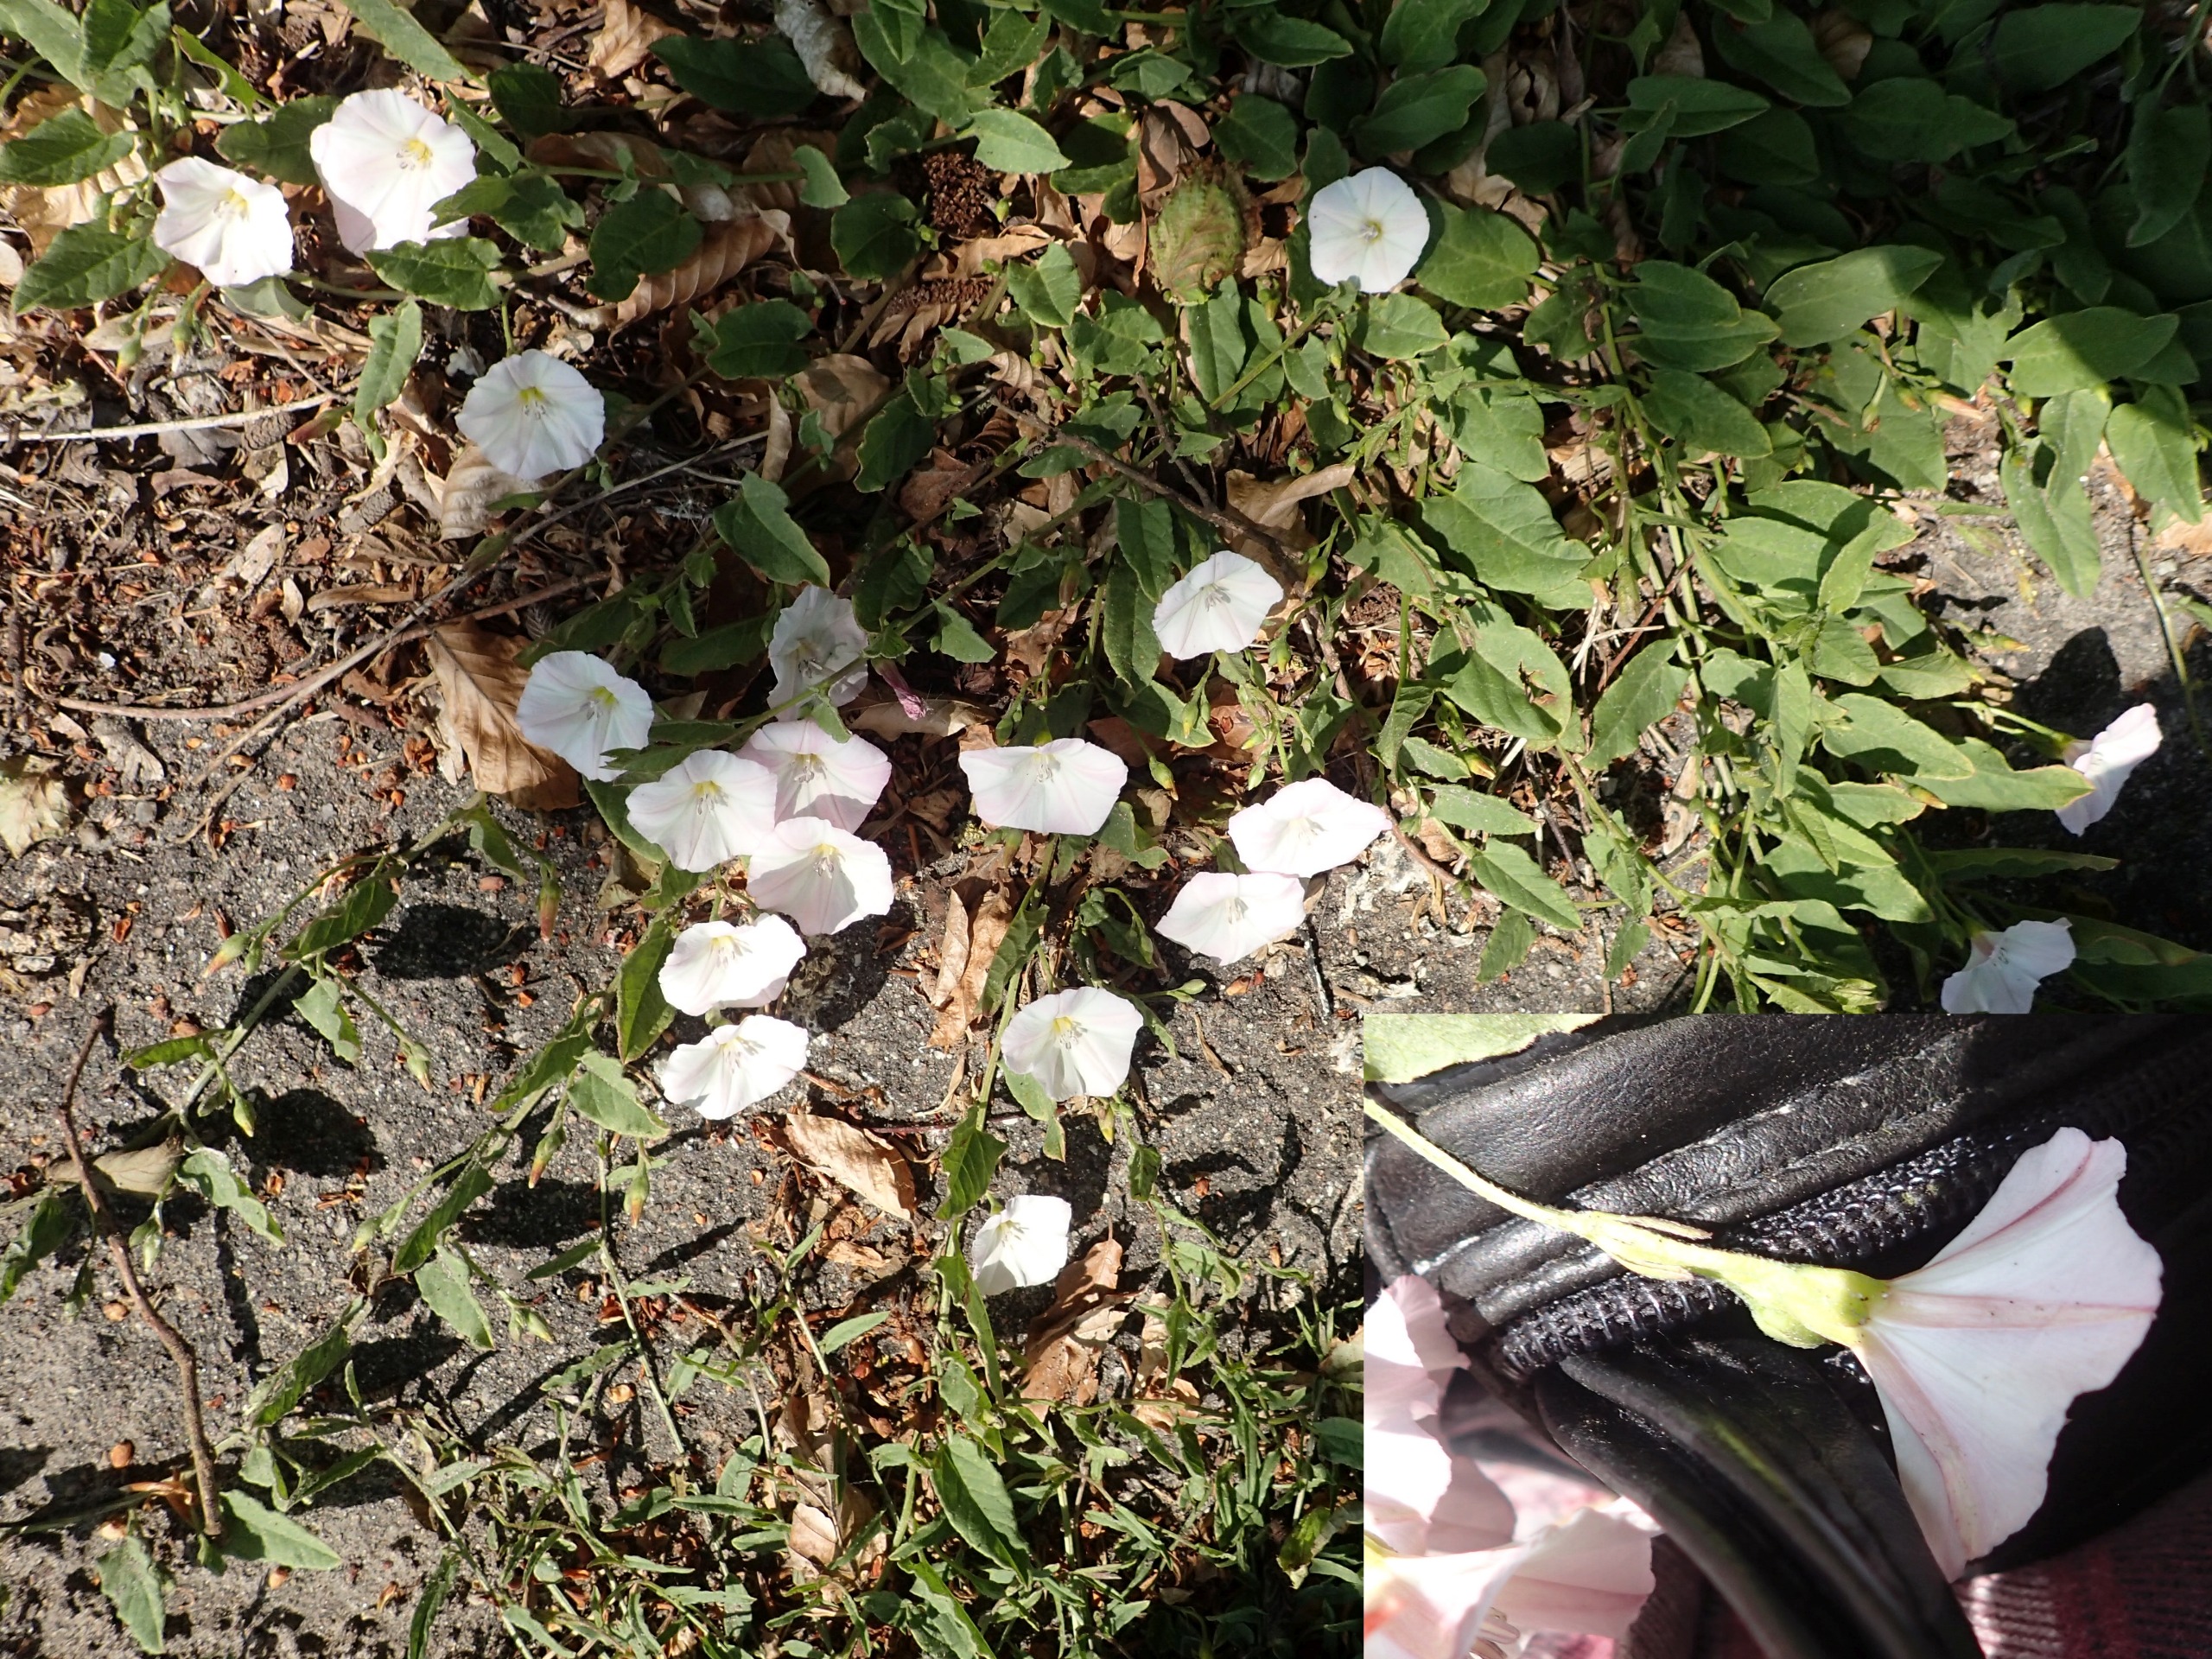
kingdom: Plantae
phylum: Tracheophyta
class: Magnoliopsida
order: Solanales
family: Convolvulaceae
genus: Convolvulus
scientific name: Convolvulus arvensis
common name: Ager-snerle
